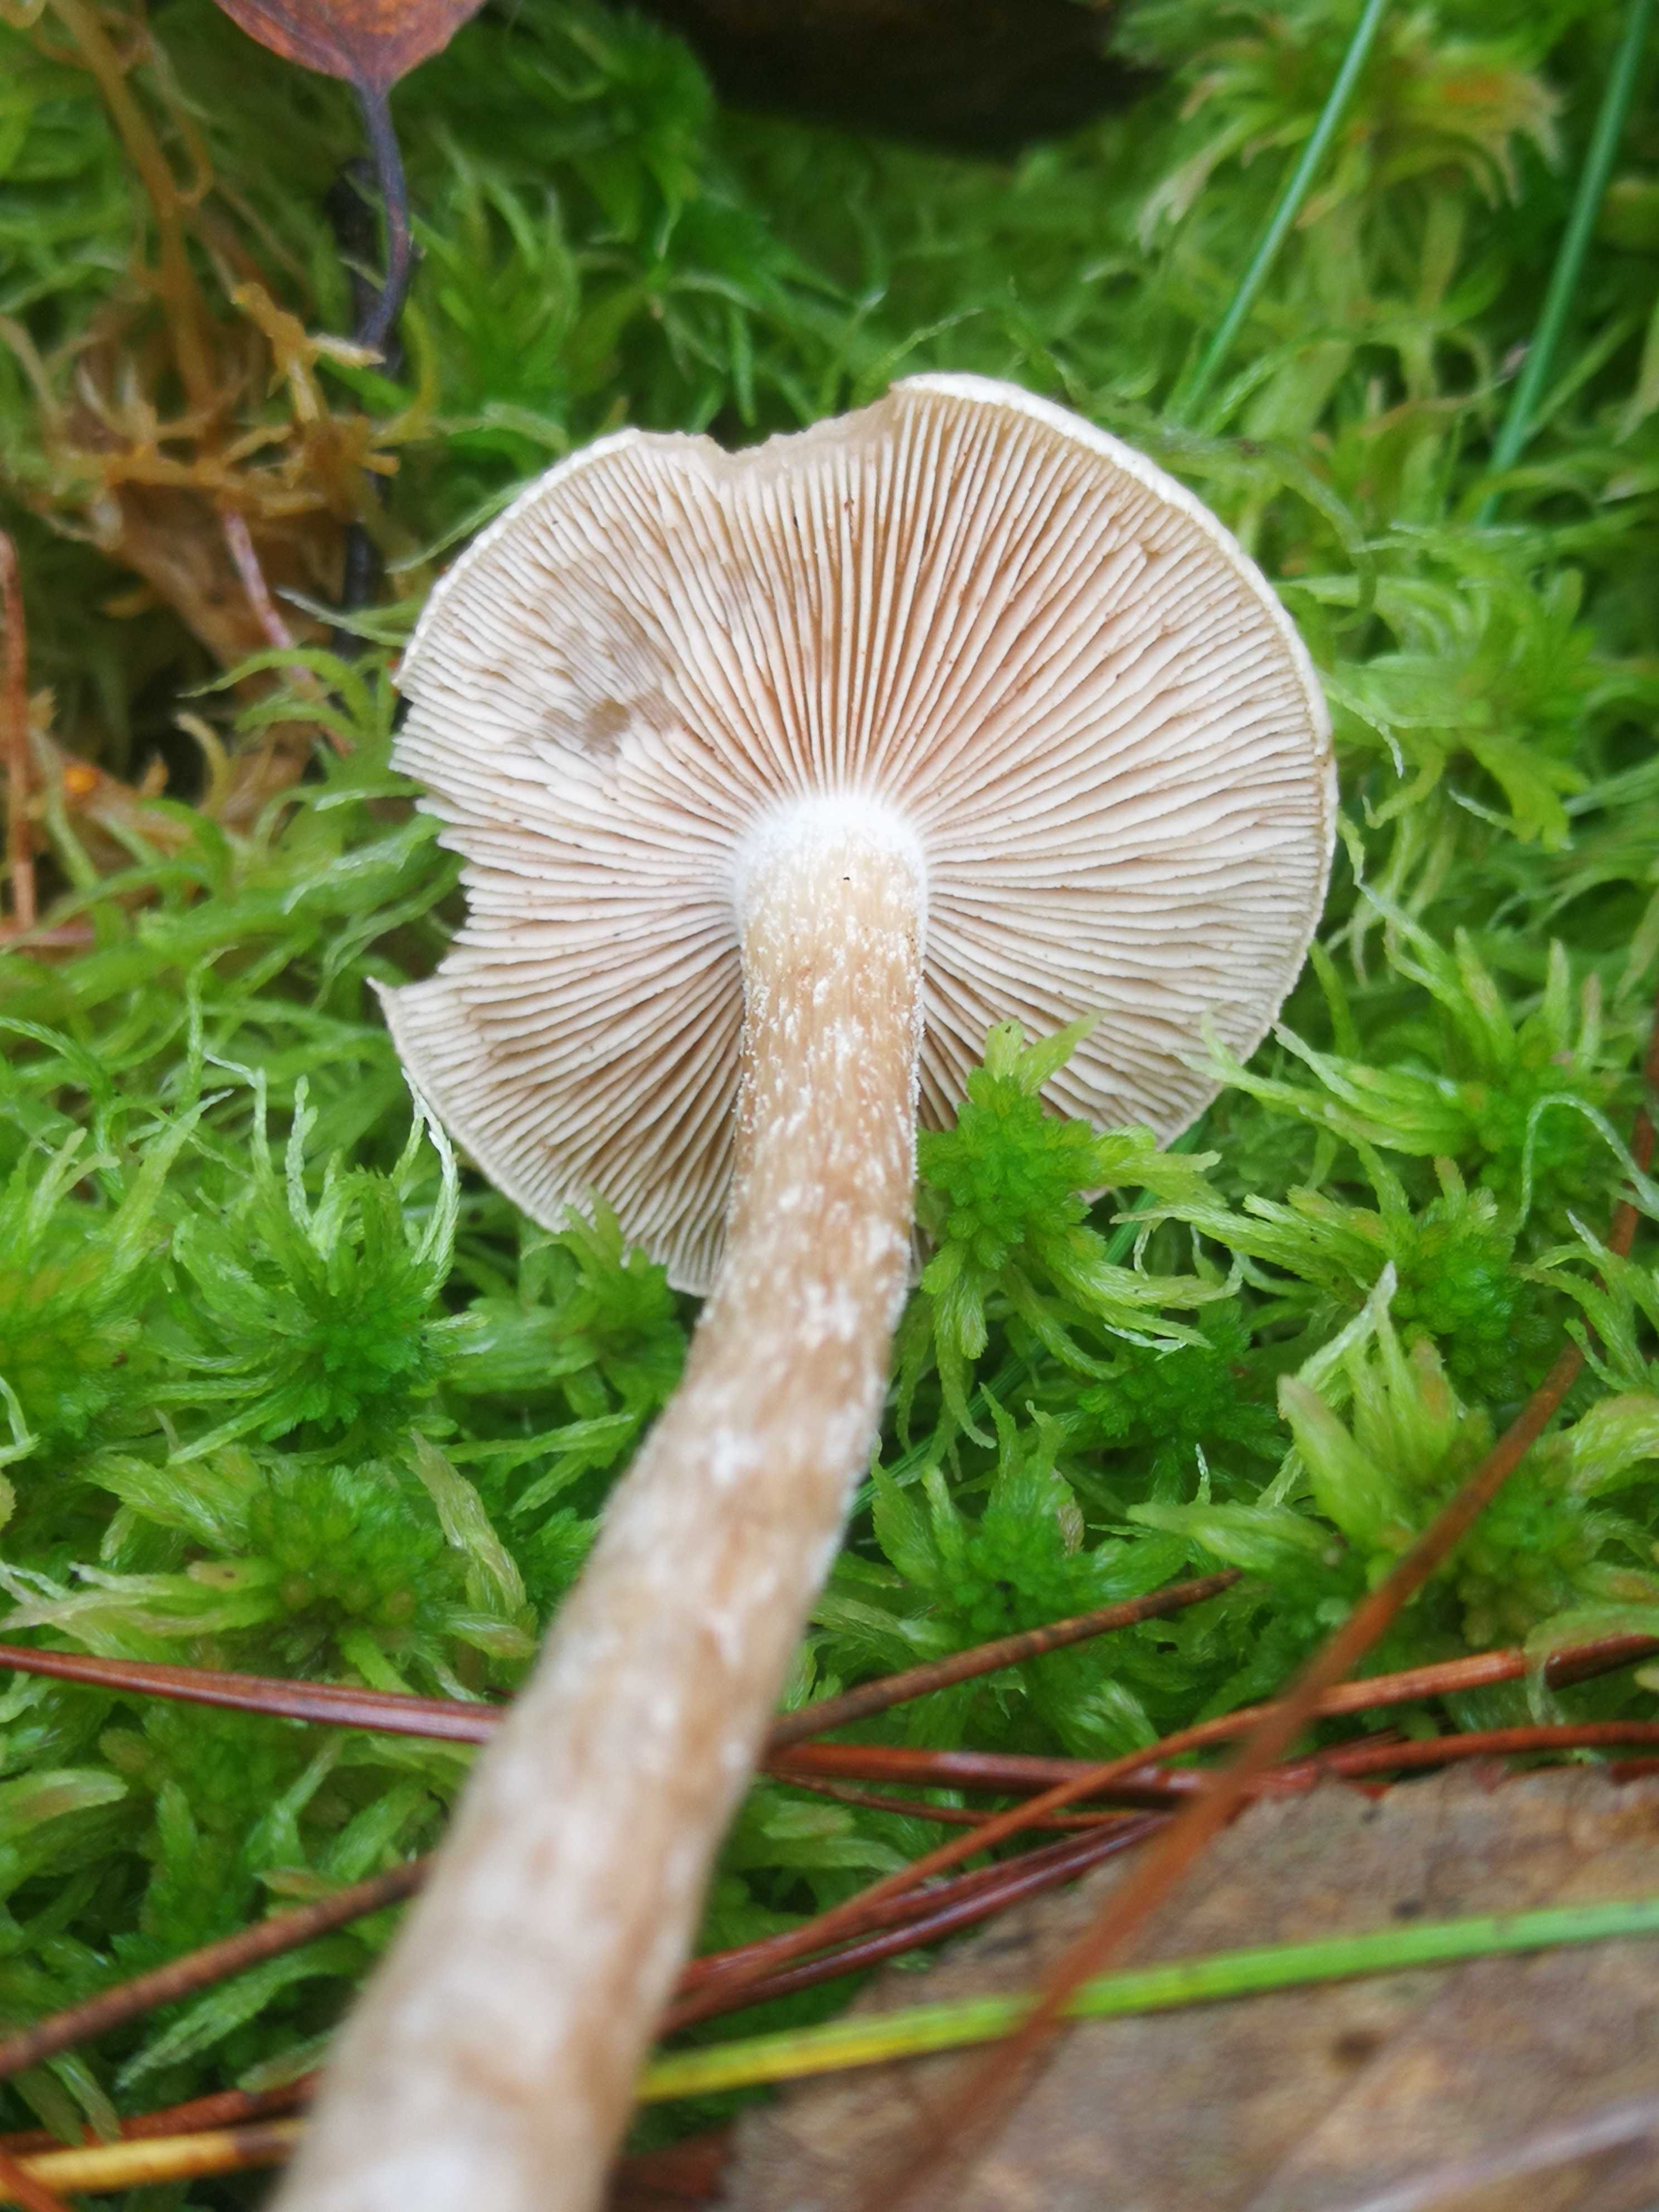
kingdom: Fungi
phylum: Basidiomycota
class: Agaricomycetes
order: Agaricales
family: Hymenogastraceae
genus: Hebeloma
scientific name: Hebeloma
